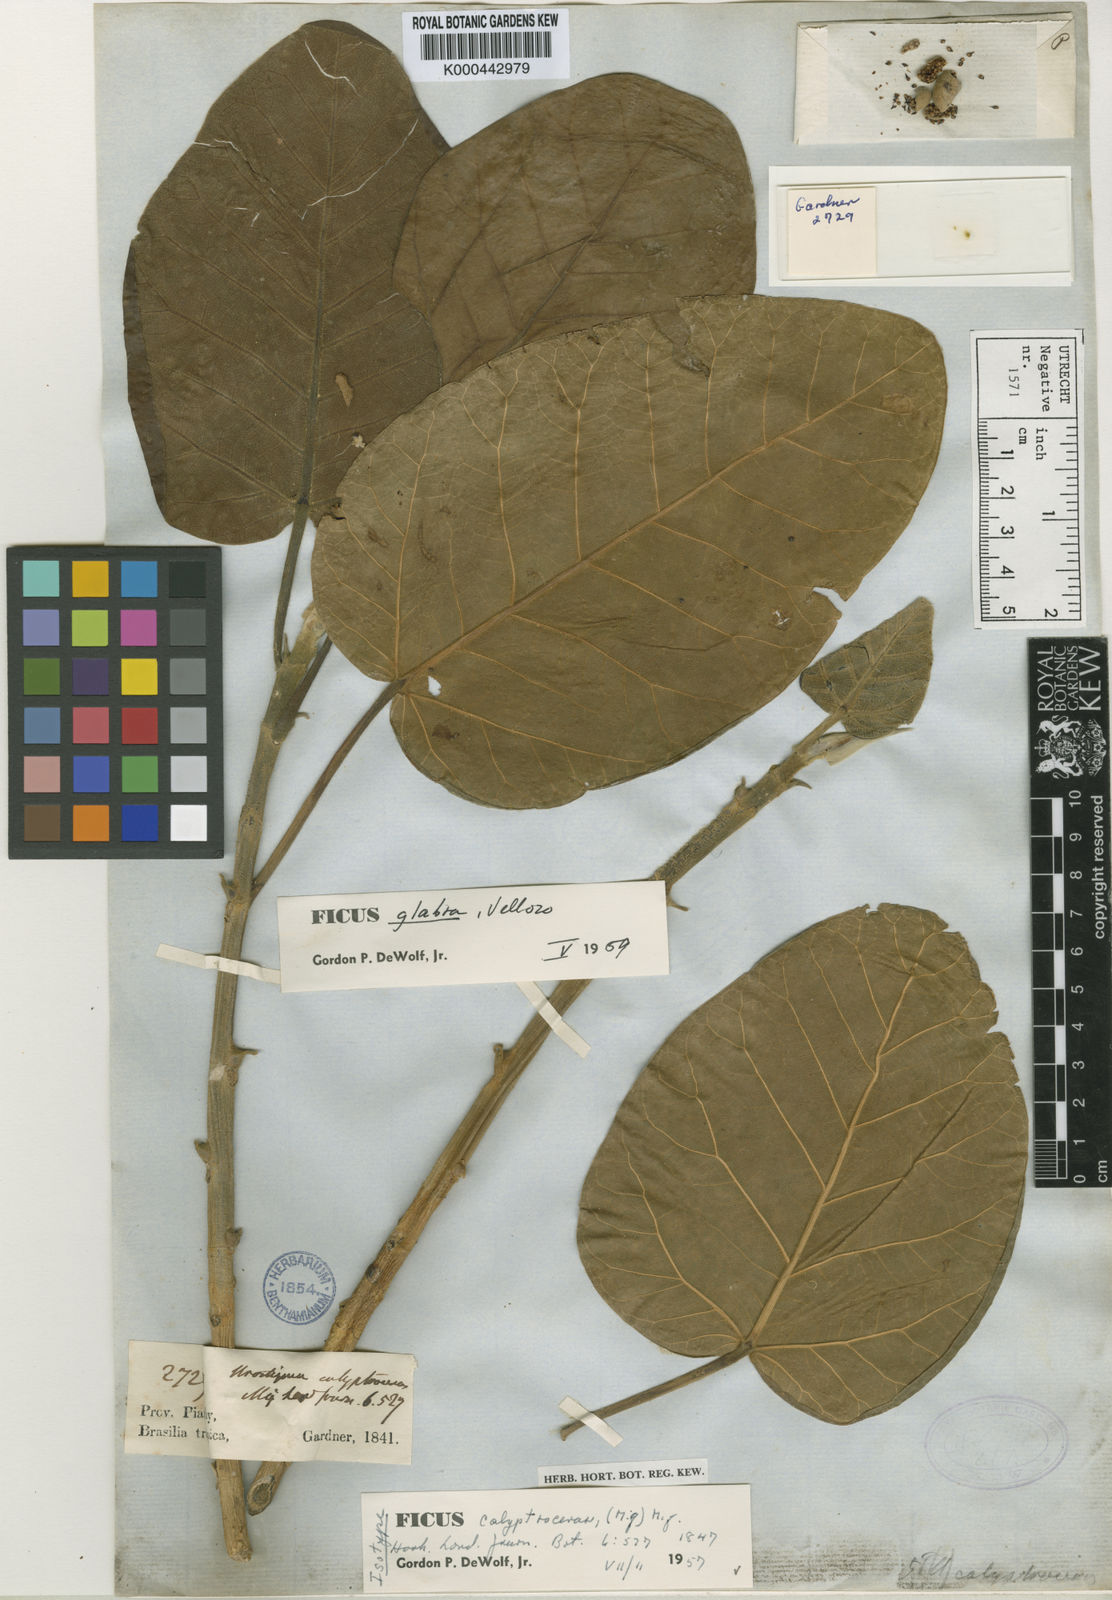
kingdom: Plantae
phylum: Tracheophyta
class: Magnoliopsida
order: Rosales
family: Moraceae
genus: Ficus
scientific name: Ficus calyptroceras
